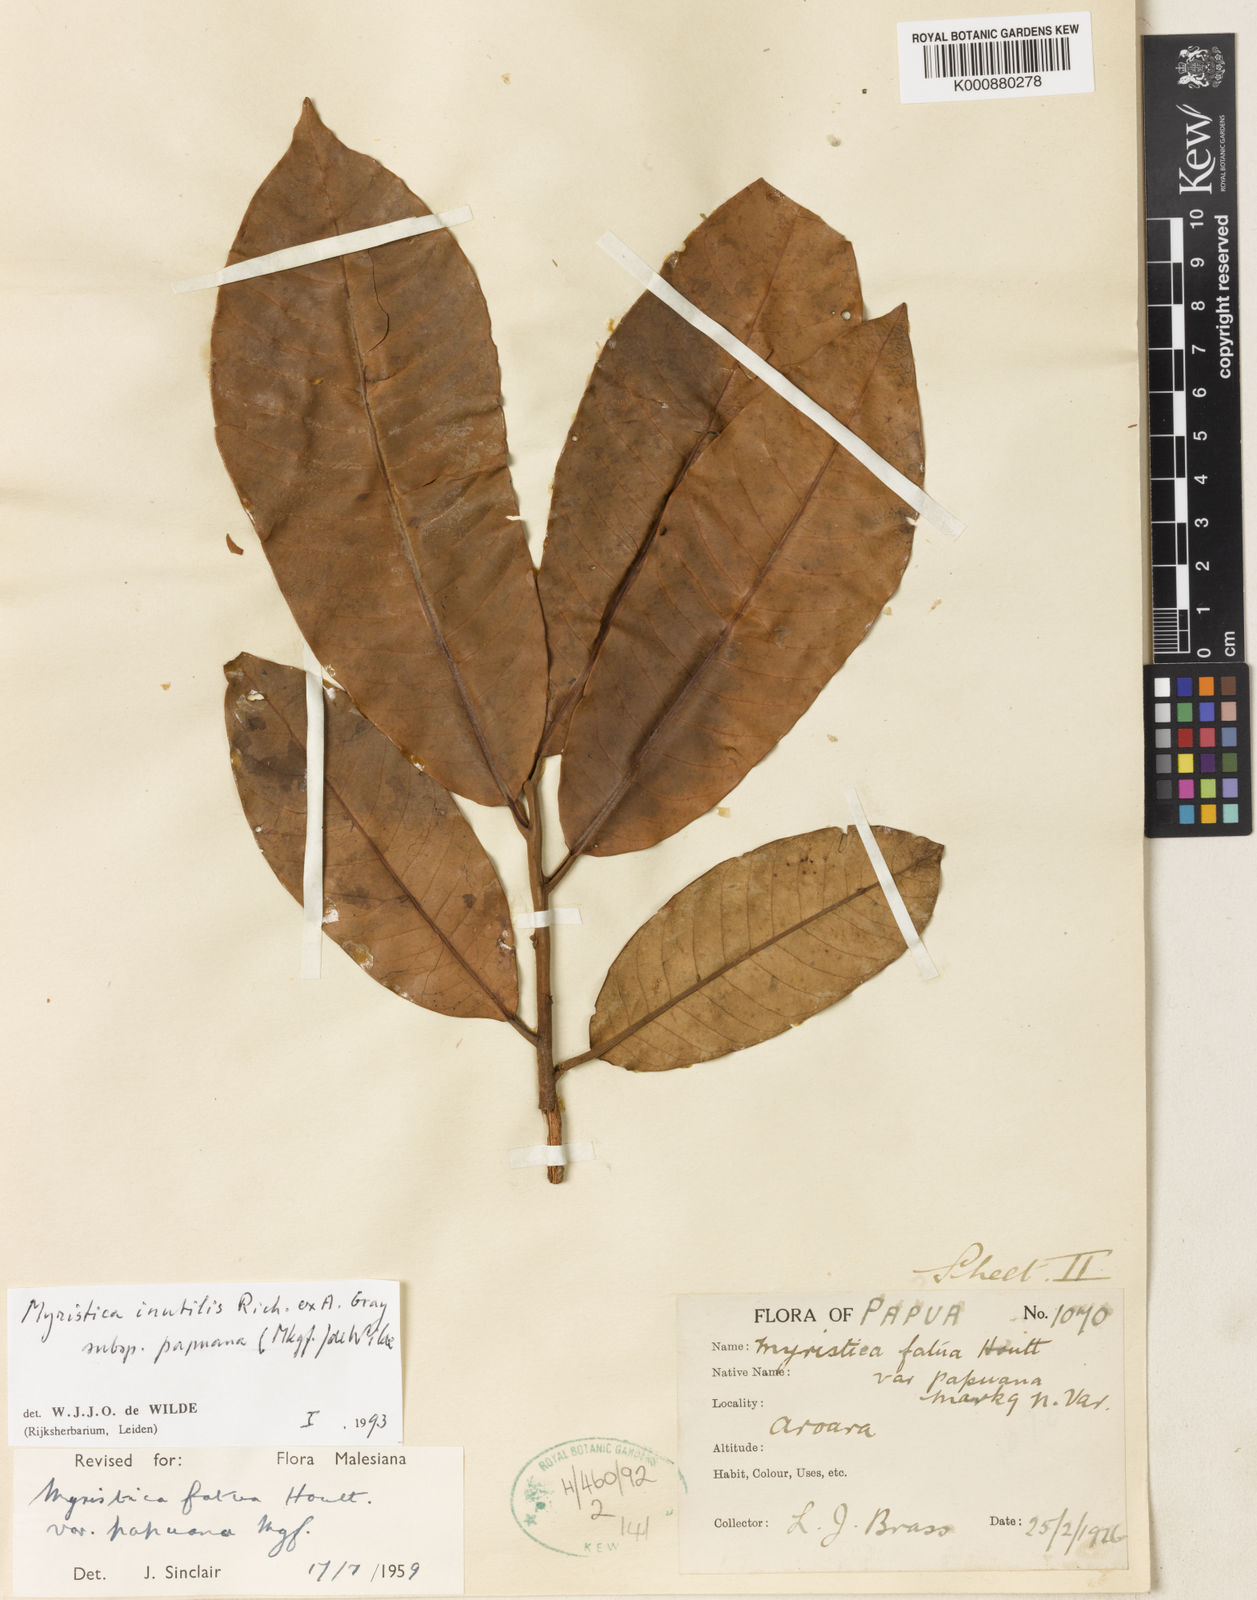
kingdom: Plantae
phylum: Tracheophyta
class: Magnoliopsida
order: Magnoliales
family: Myristicaceae
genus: Myristica
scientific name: Myristica fatua
